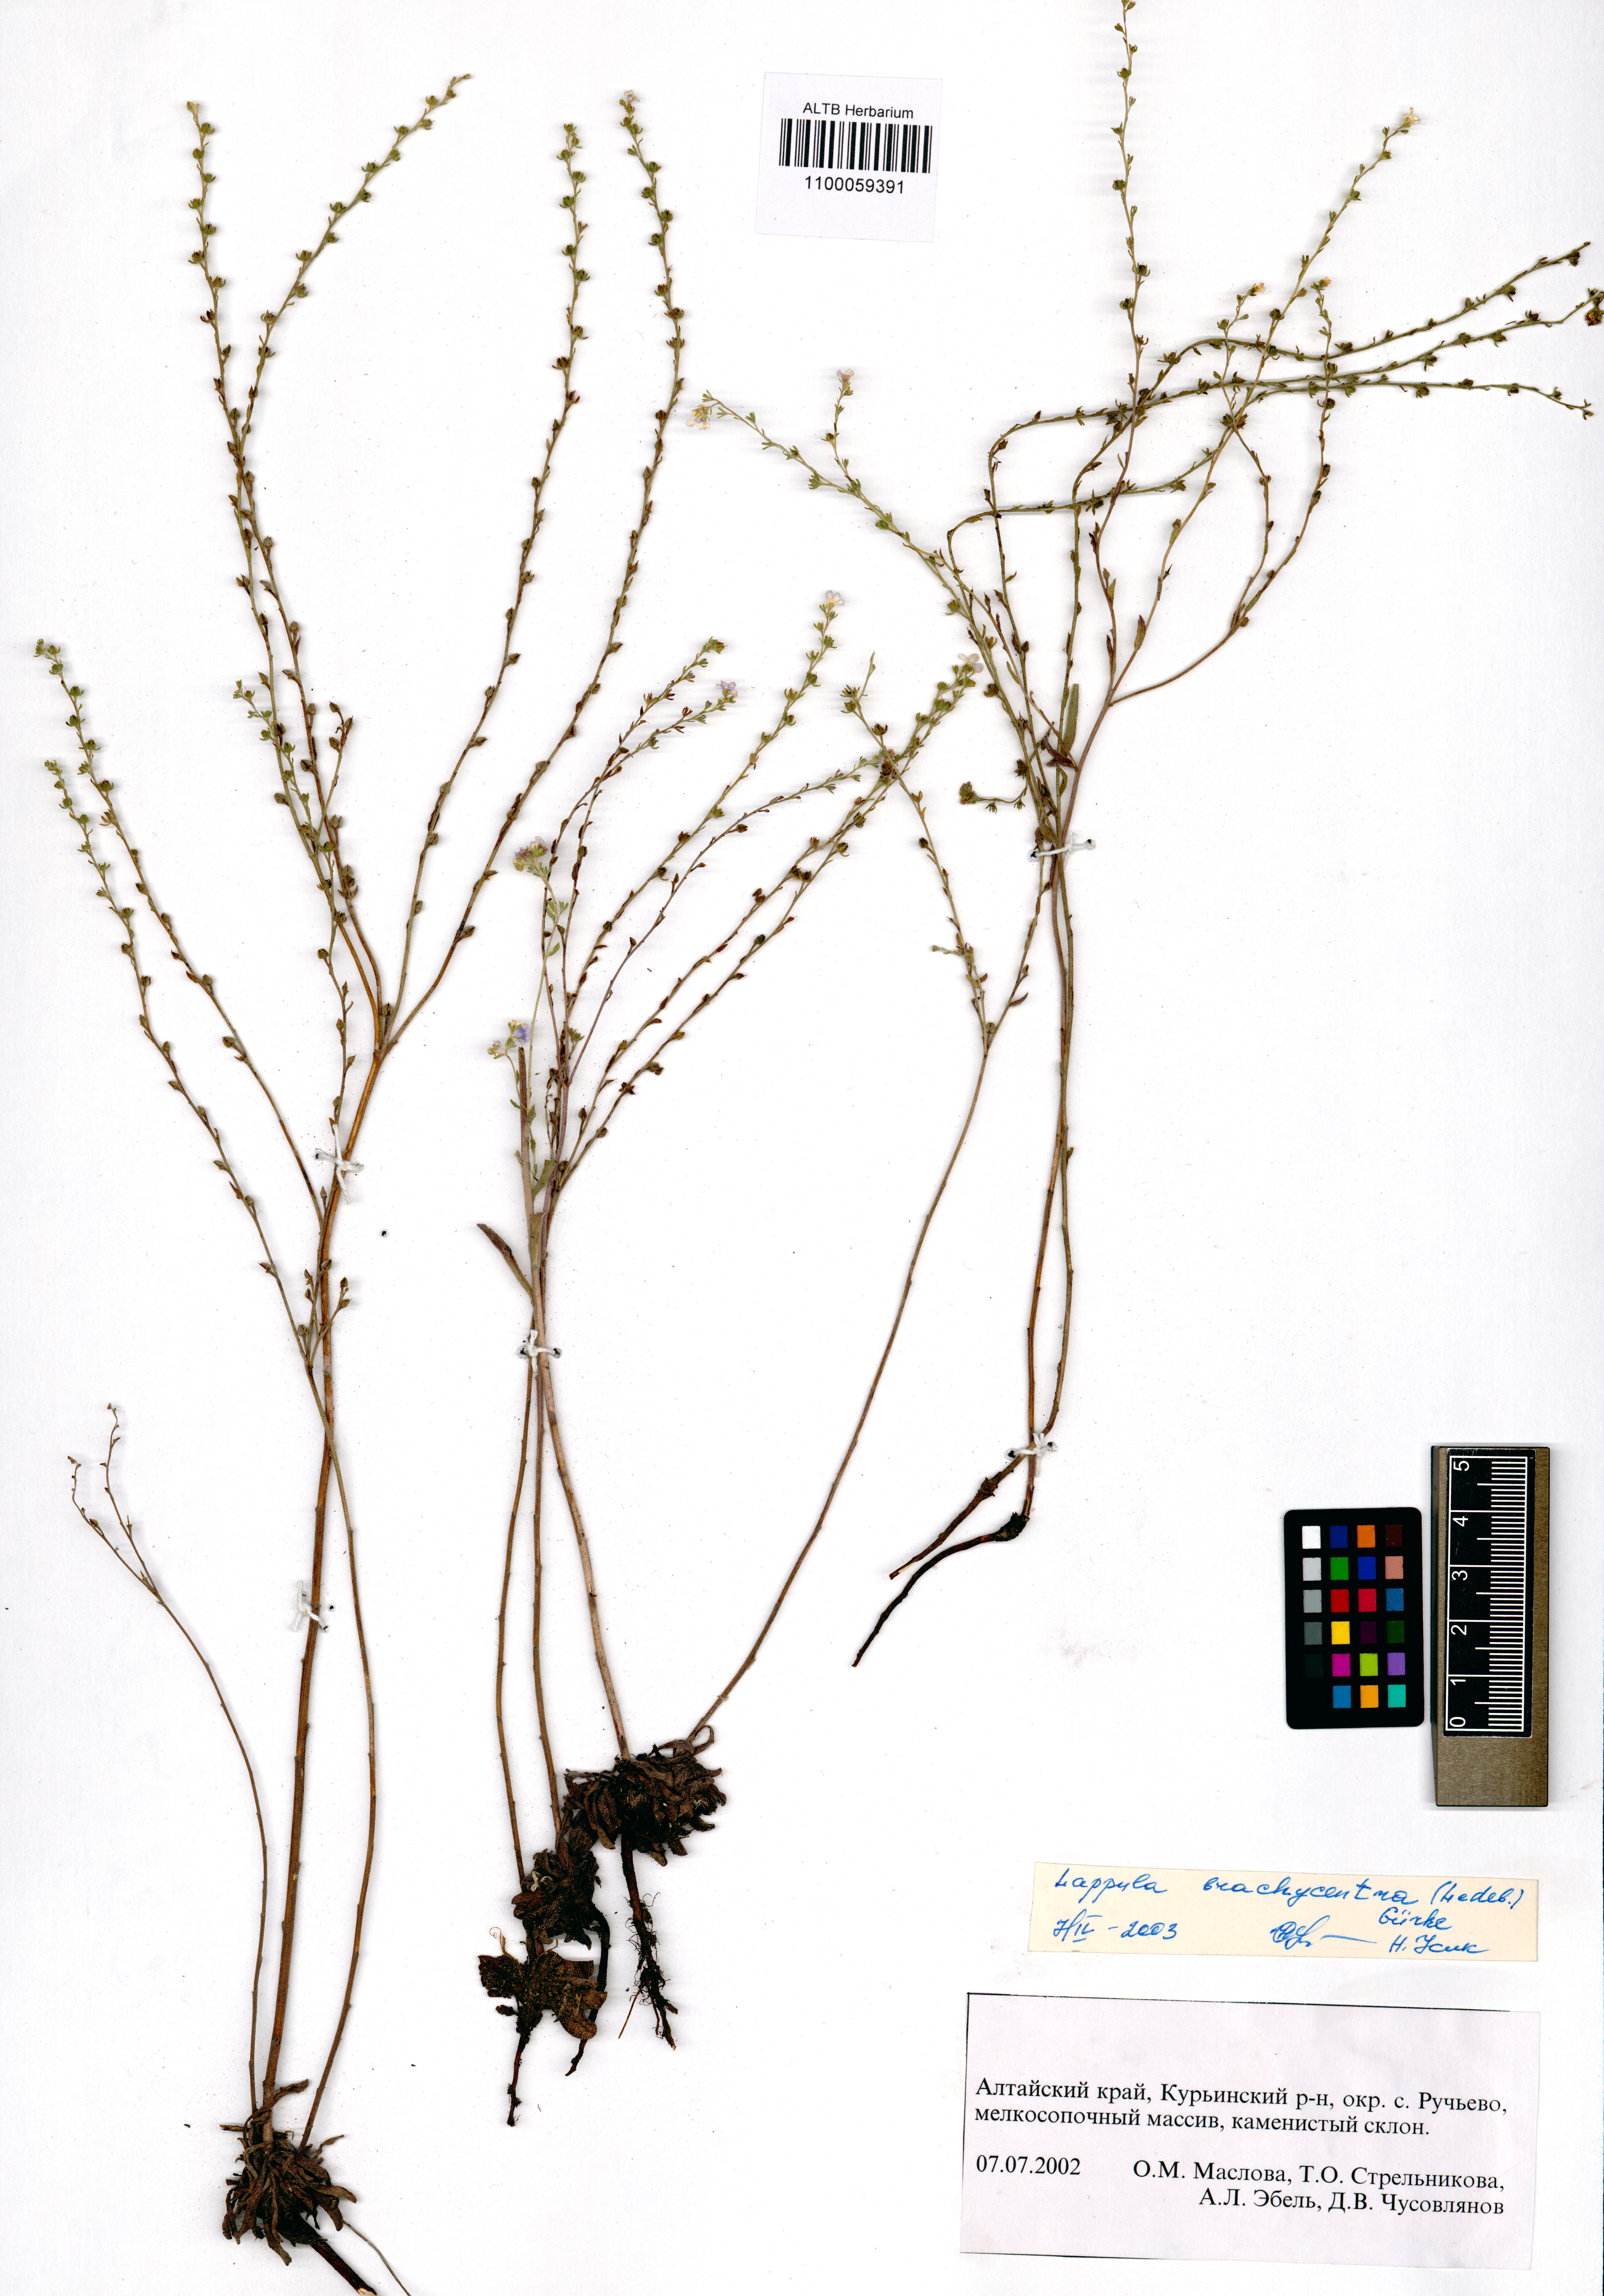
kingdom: Plantae
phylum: Tracheophyta
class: Magnoliopsida
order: Boraginales
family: Boraginaceae
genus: Lappula
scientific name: Lappula brachycentra
